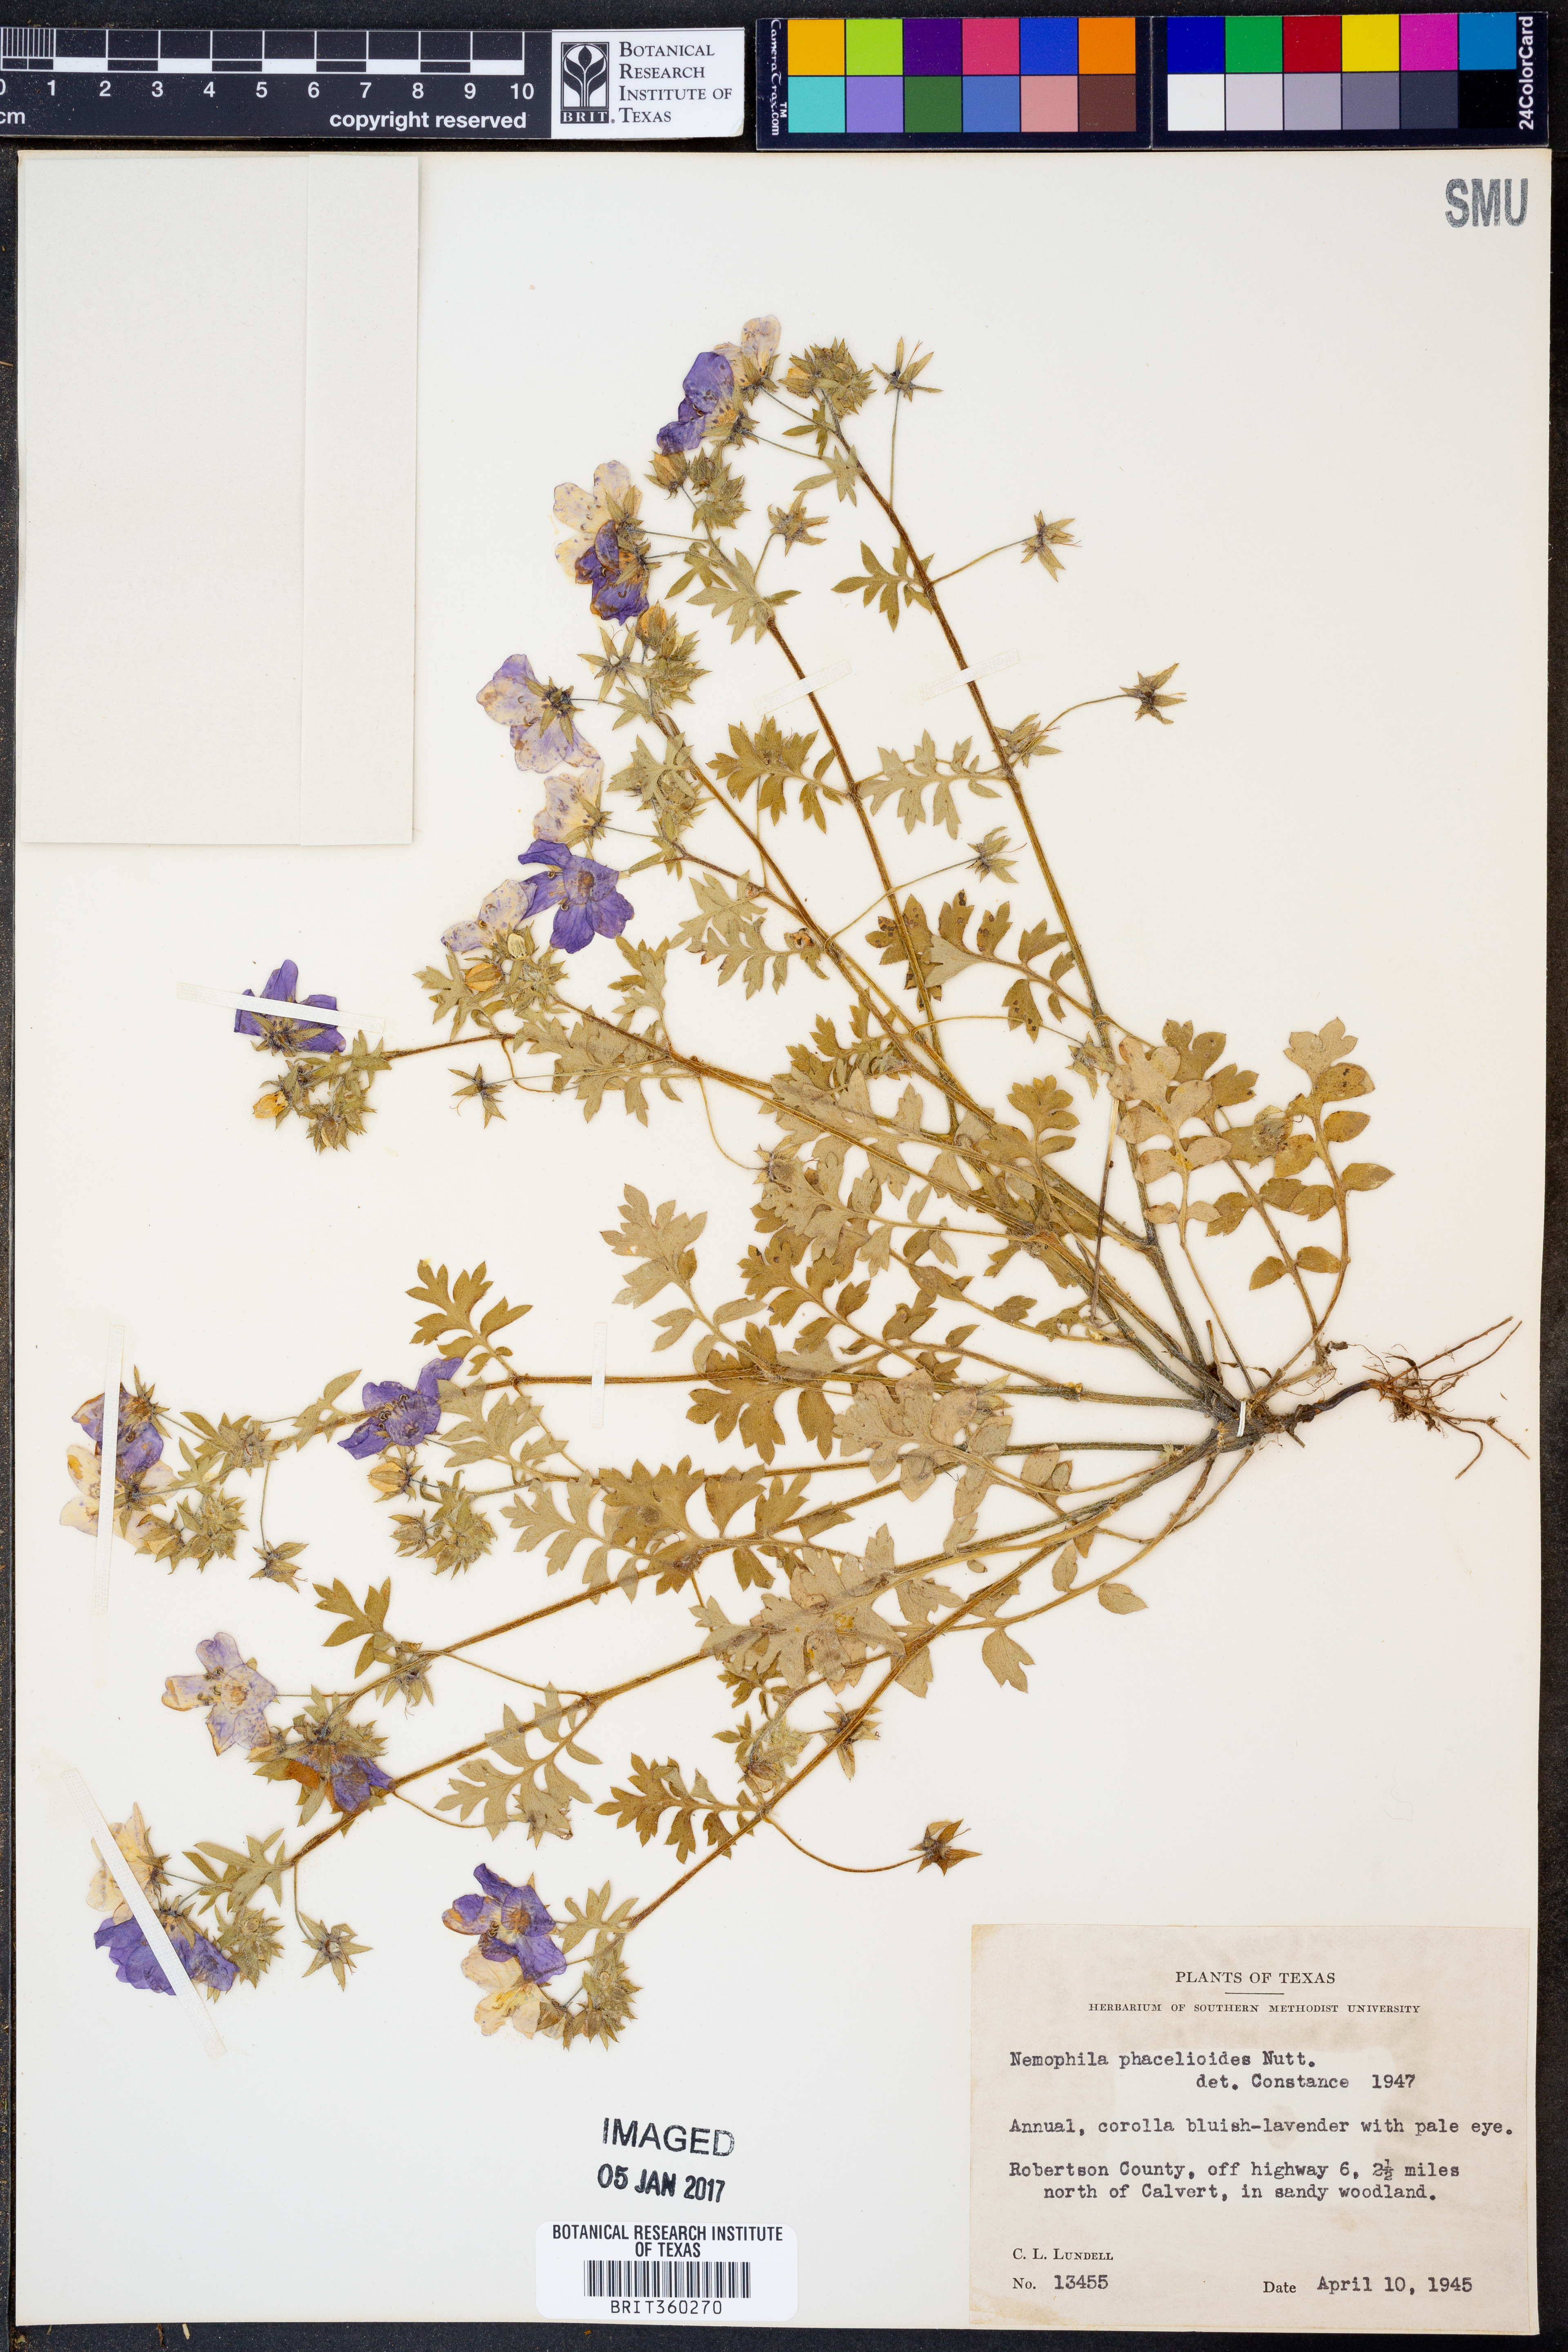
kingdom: Plantae
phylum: Tracheophyta
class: Magnoliopsida
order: Boraginales
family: Hydrophyllaceae
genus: Nemophila
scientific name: Nemophila phacelioides
